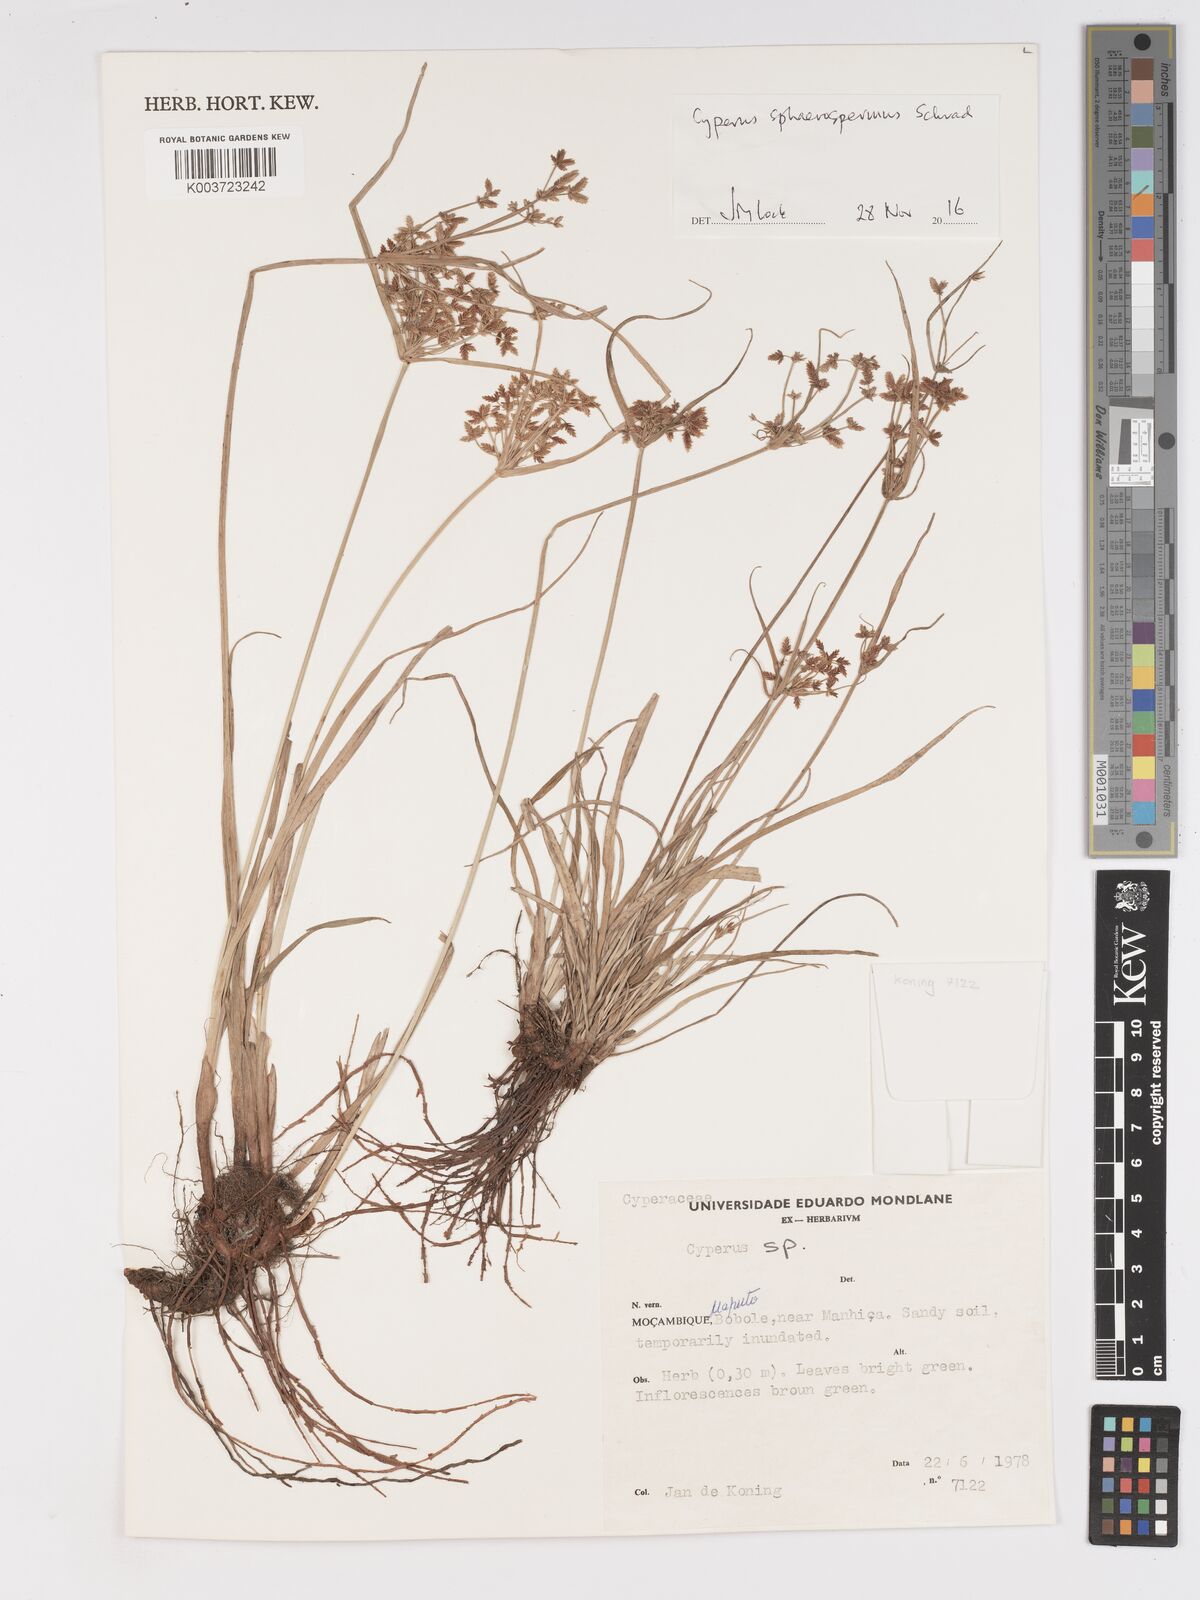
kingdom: Plantae
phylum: Tracheophyta
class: Liliopsida
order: Poales
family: Cyperaceae
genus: Cyperus
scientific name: Cyperus denudatus
